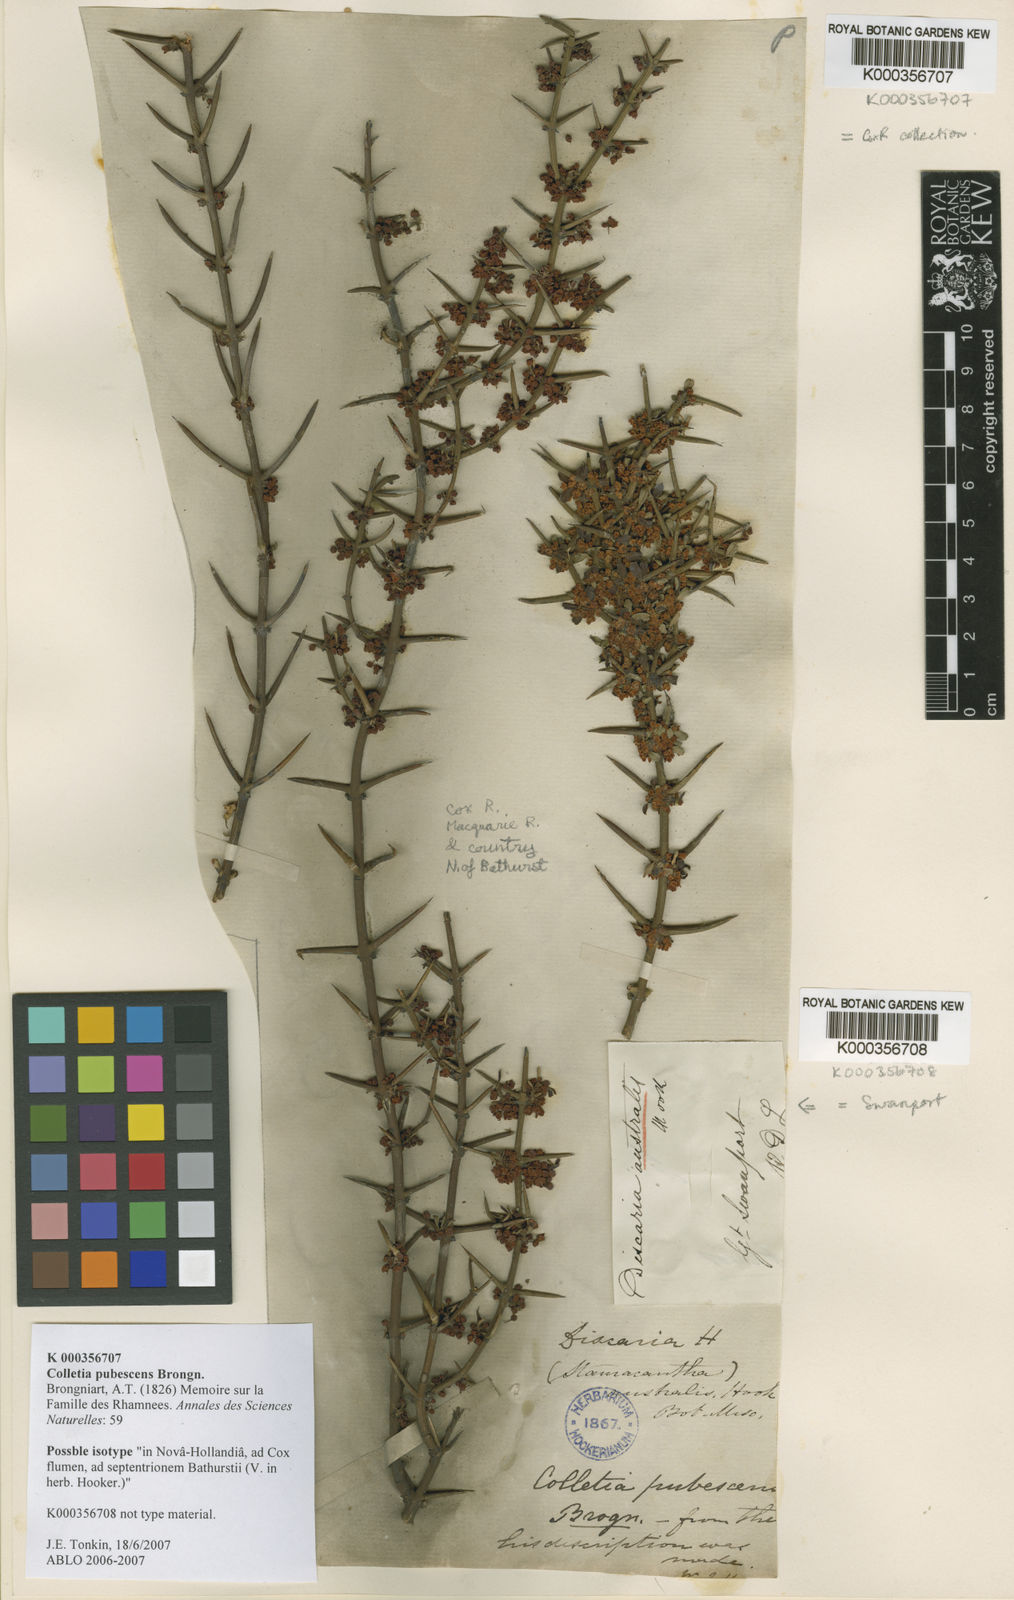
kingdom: Plantae
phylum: Tracheophyta
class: Magnoliopsida
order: Rosales
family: Rhamnaceae
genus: Discaria
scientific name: Discaria pubescens
